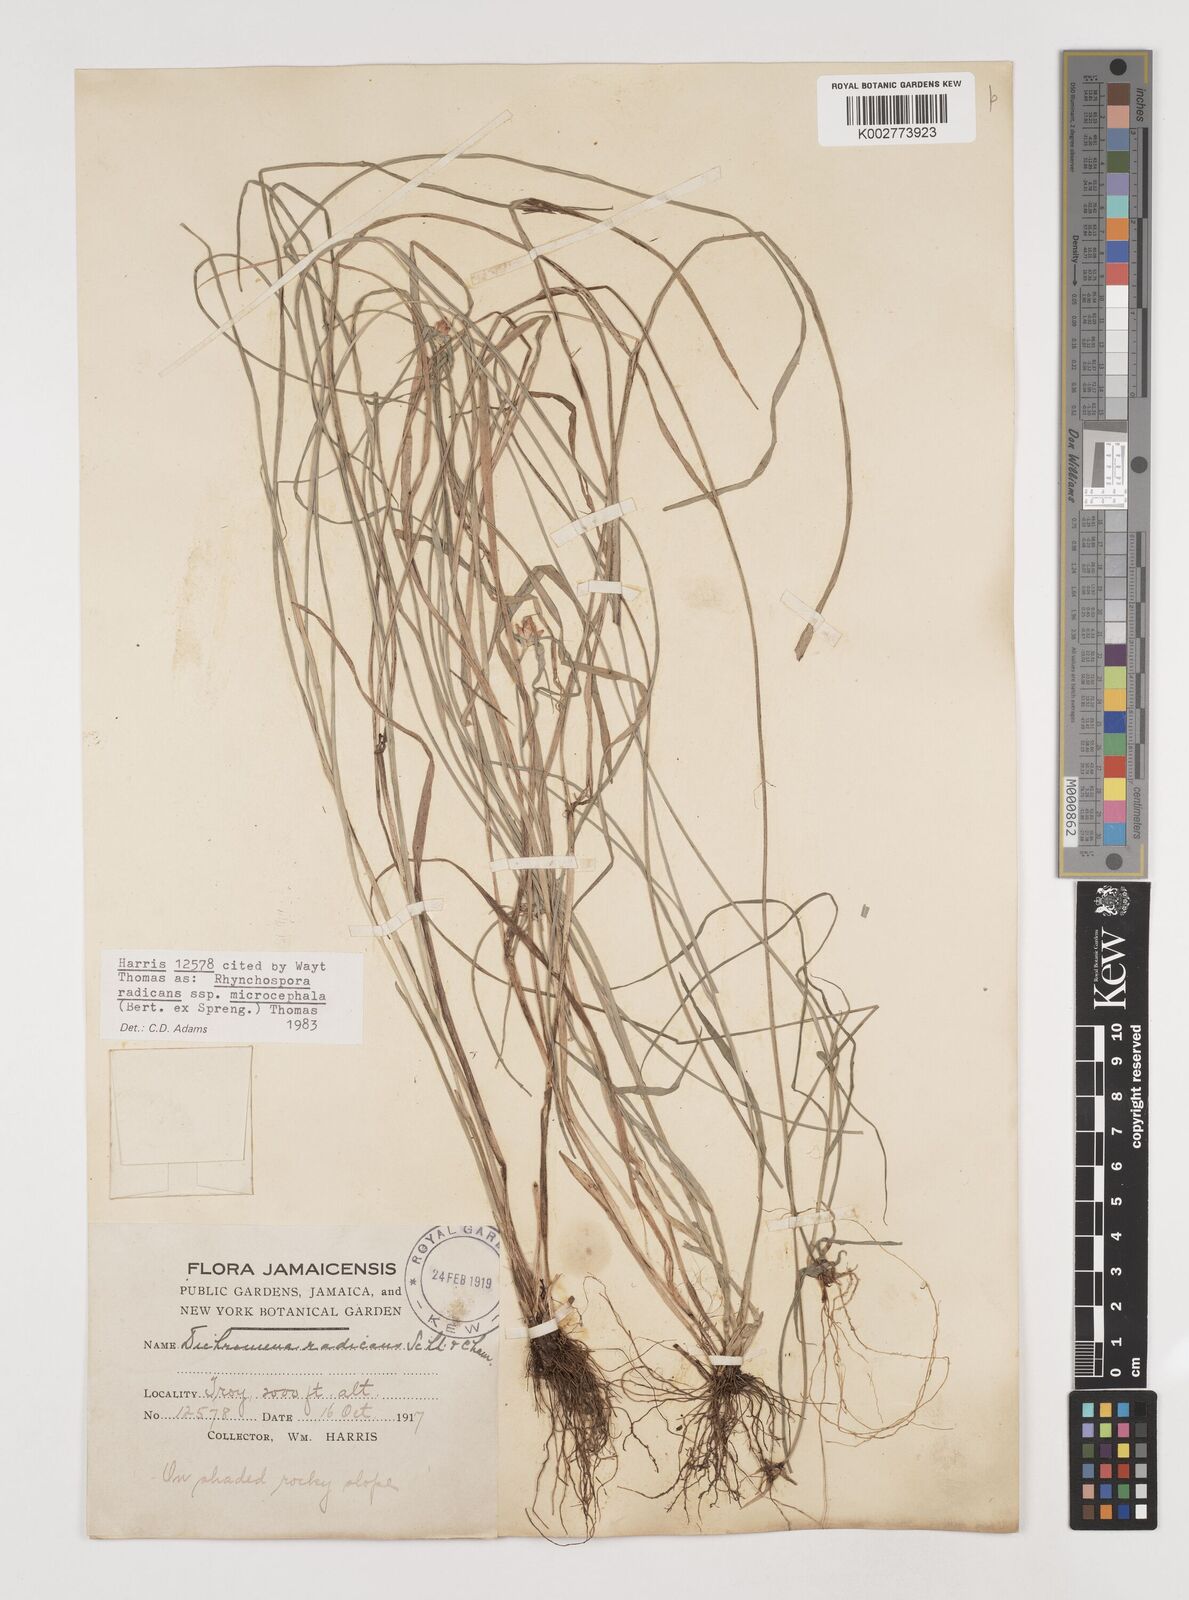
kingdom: Plantae
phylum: Tracheophyta
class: Liliopsida
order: Poales
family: Cyperaceae
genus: Rhynchospora
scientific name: Rhynchospora radicans
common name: Tropical whitetop
